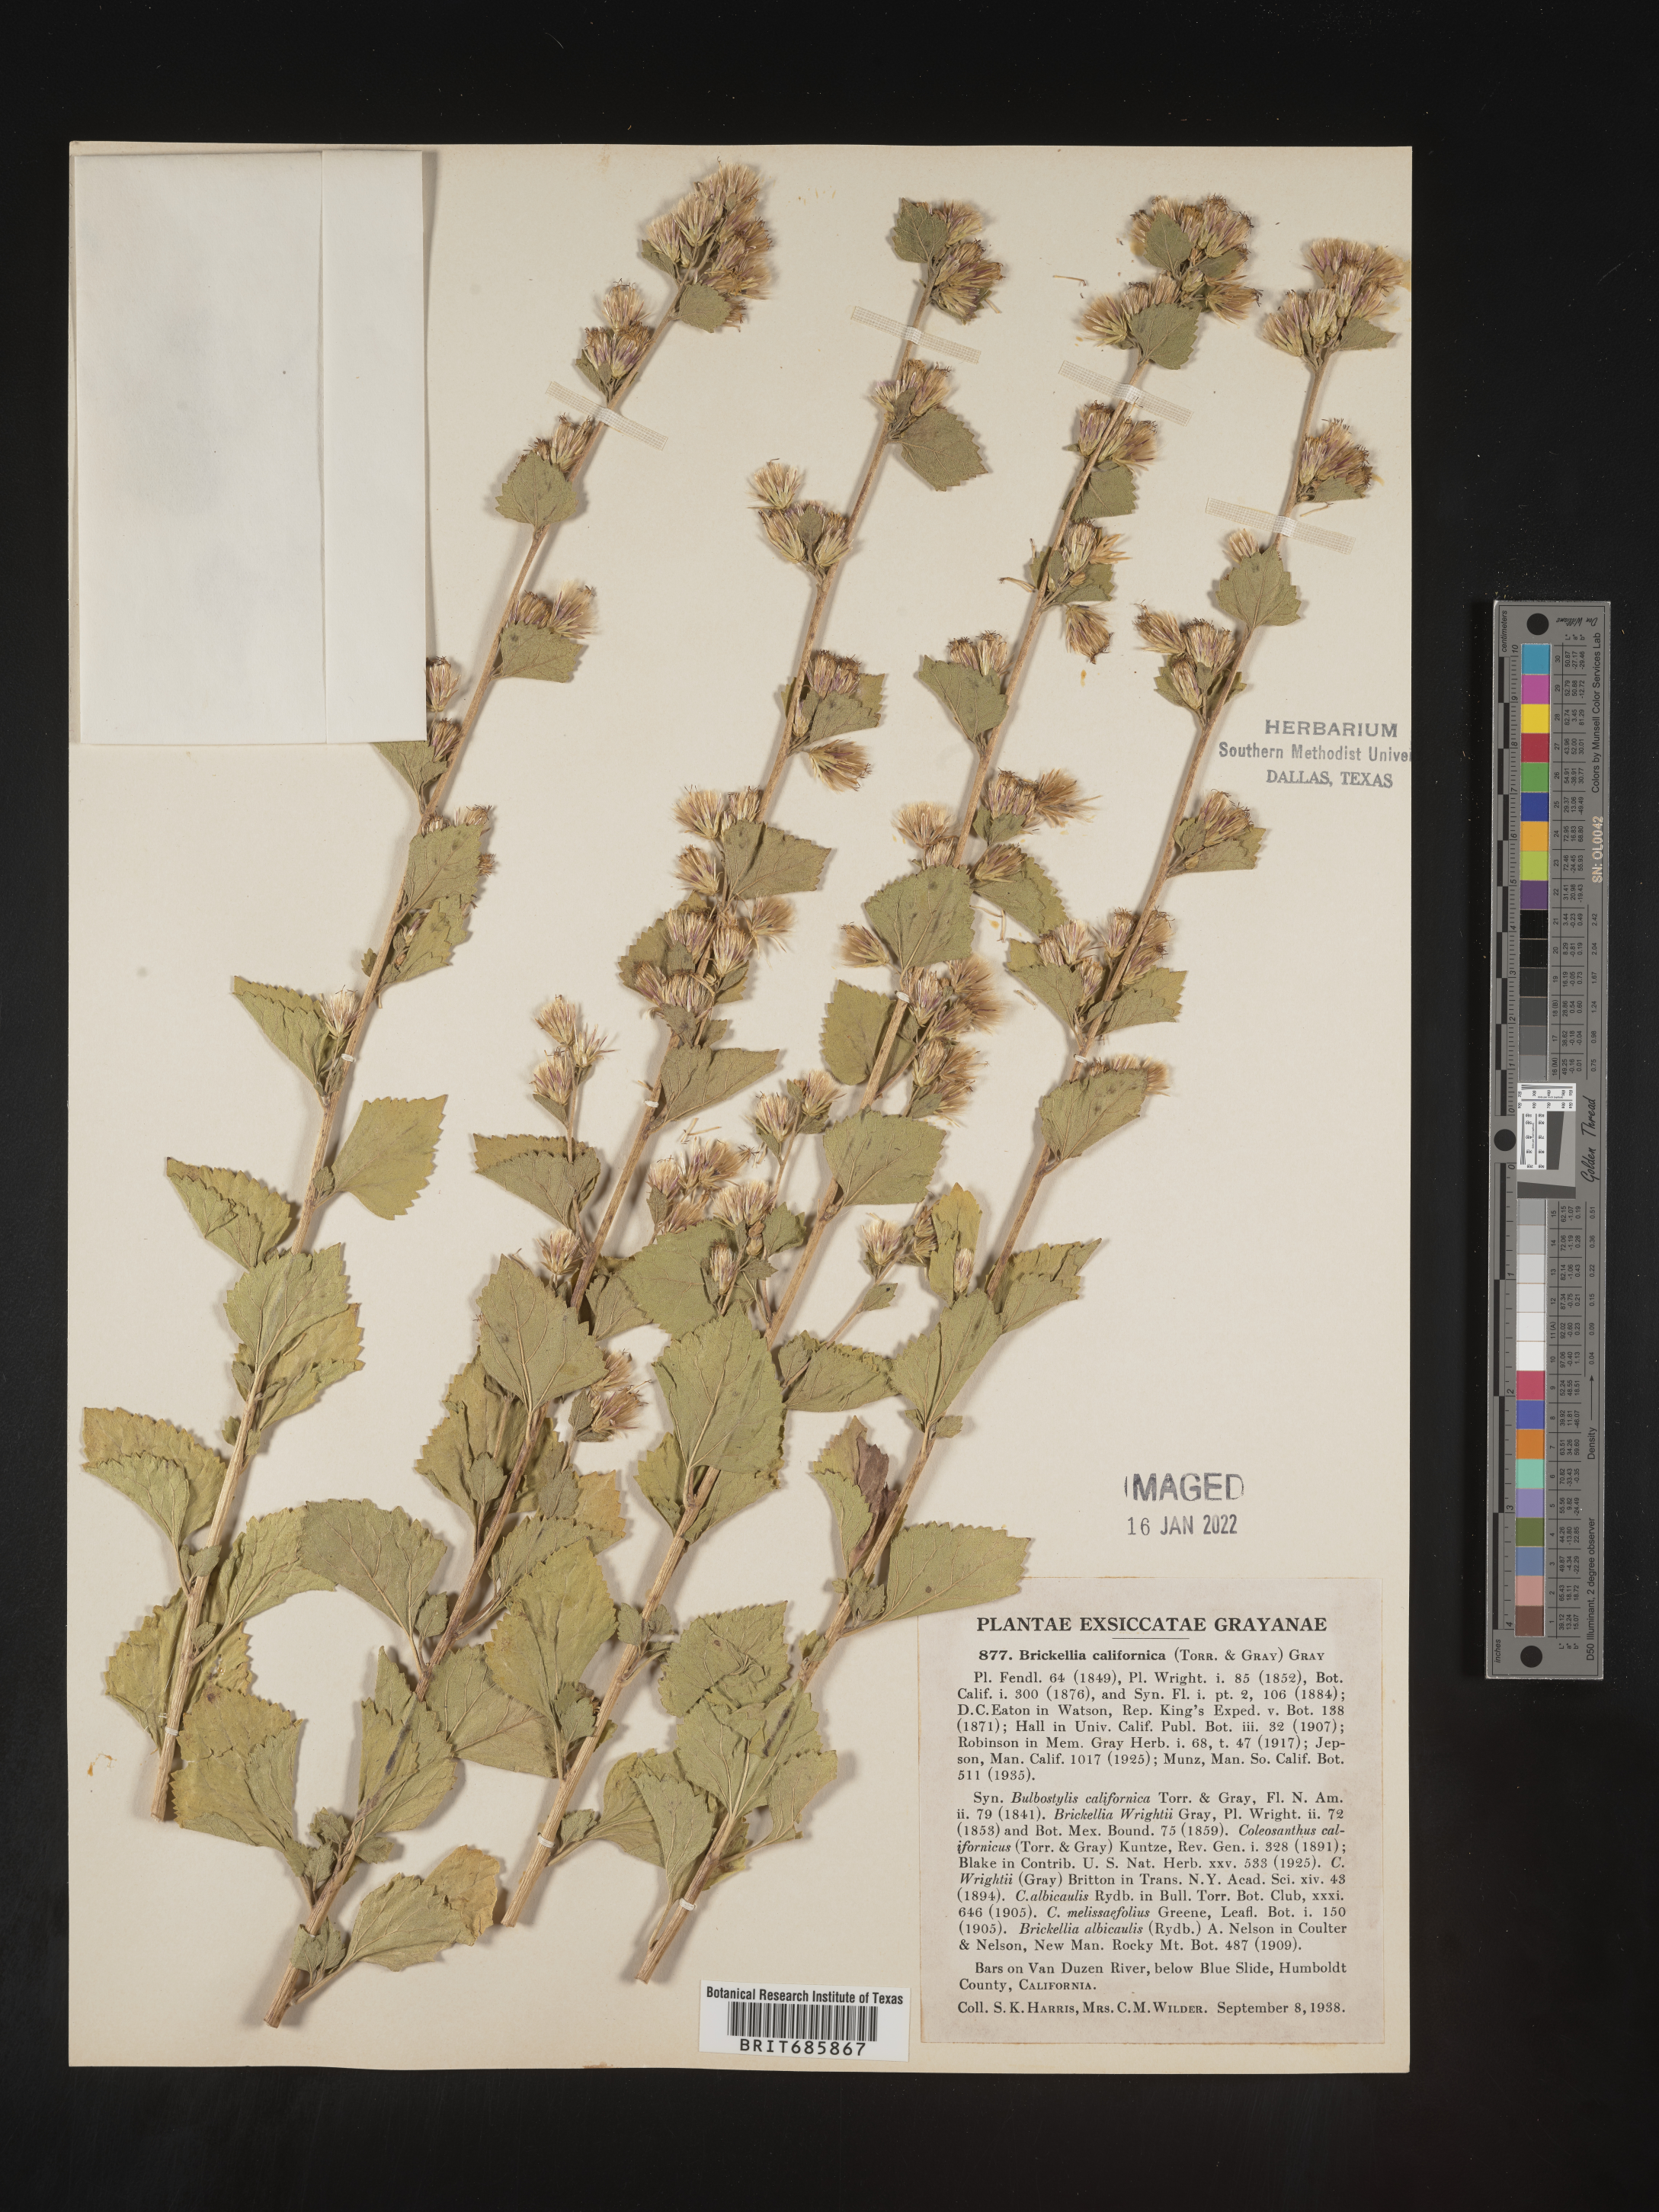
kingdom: Plantae
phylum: Tracheophyta
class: Magnoliopsida
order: Asterales
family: Asteraceae
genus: Brickellia
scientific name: Brickellia californica
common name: California brickellbush
